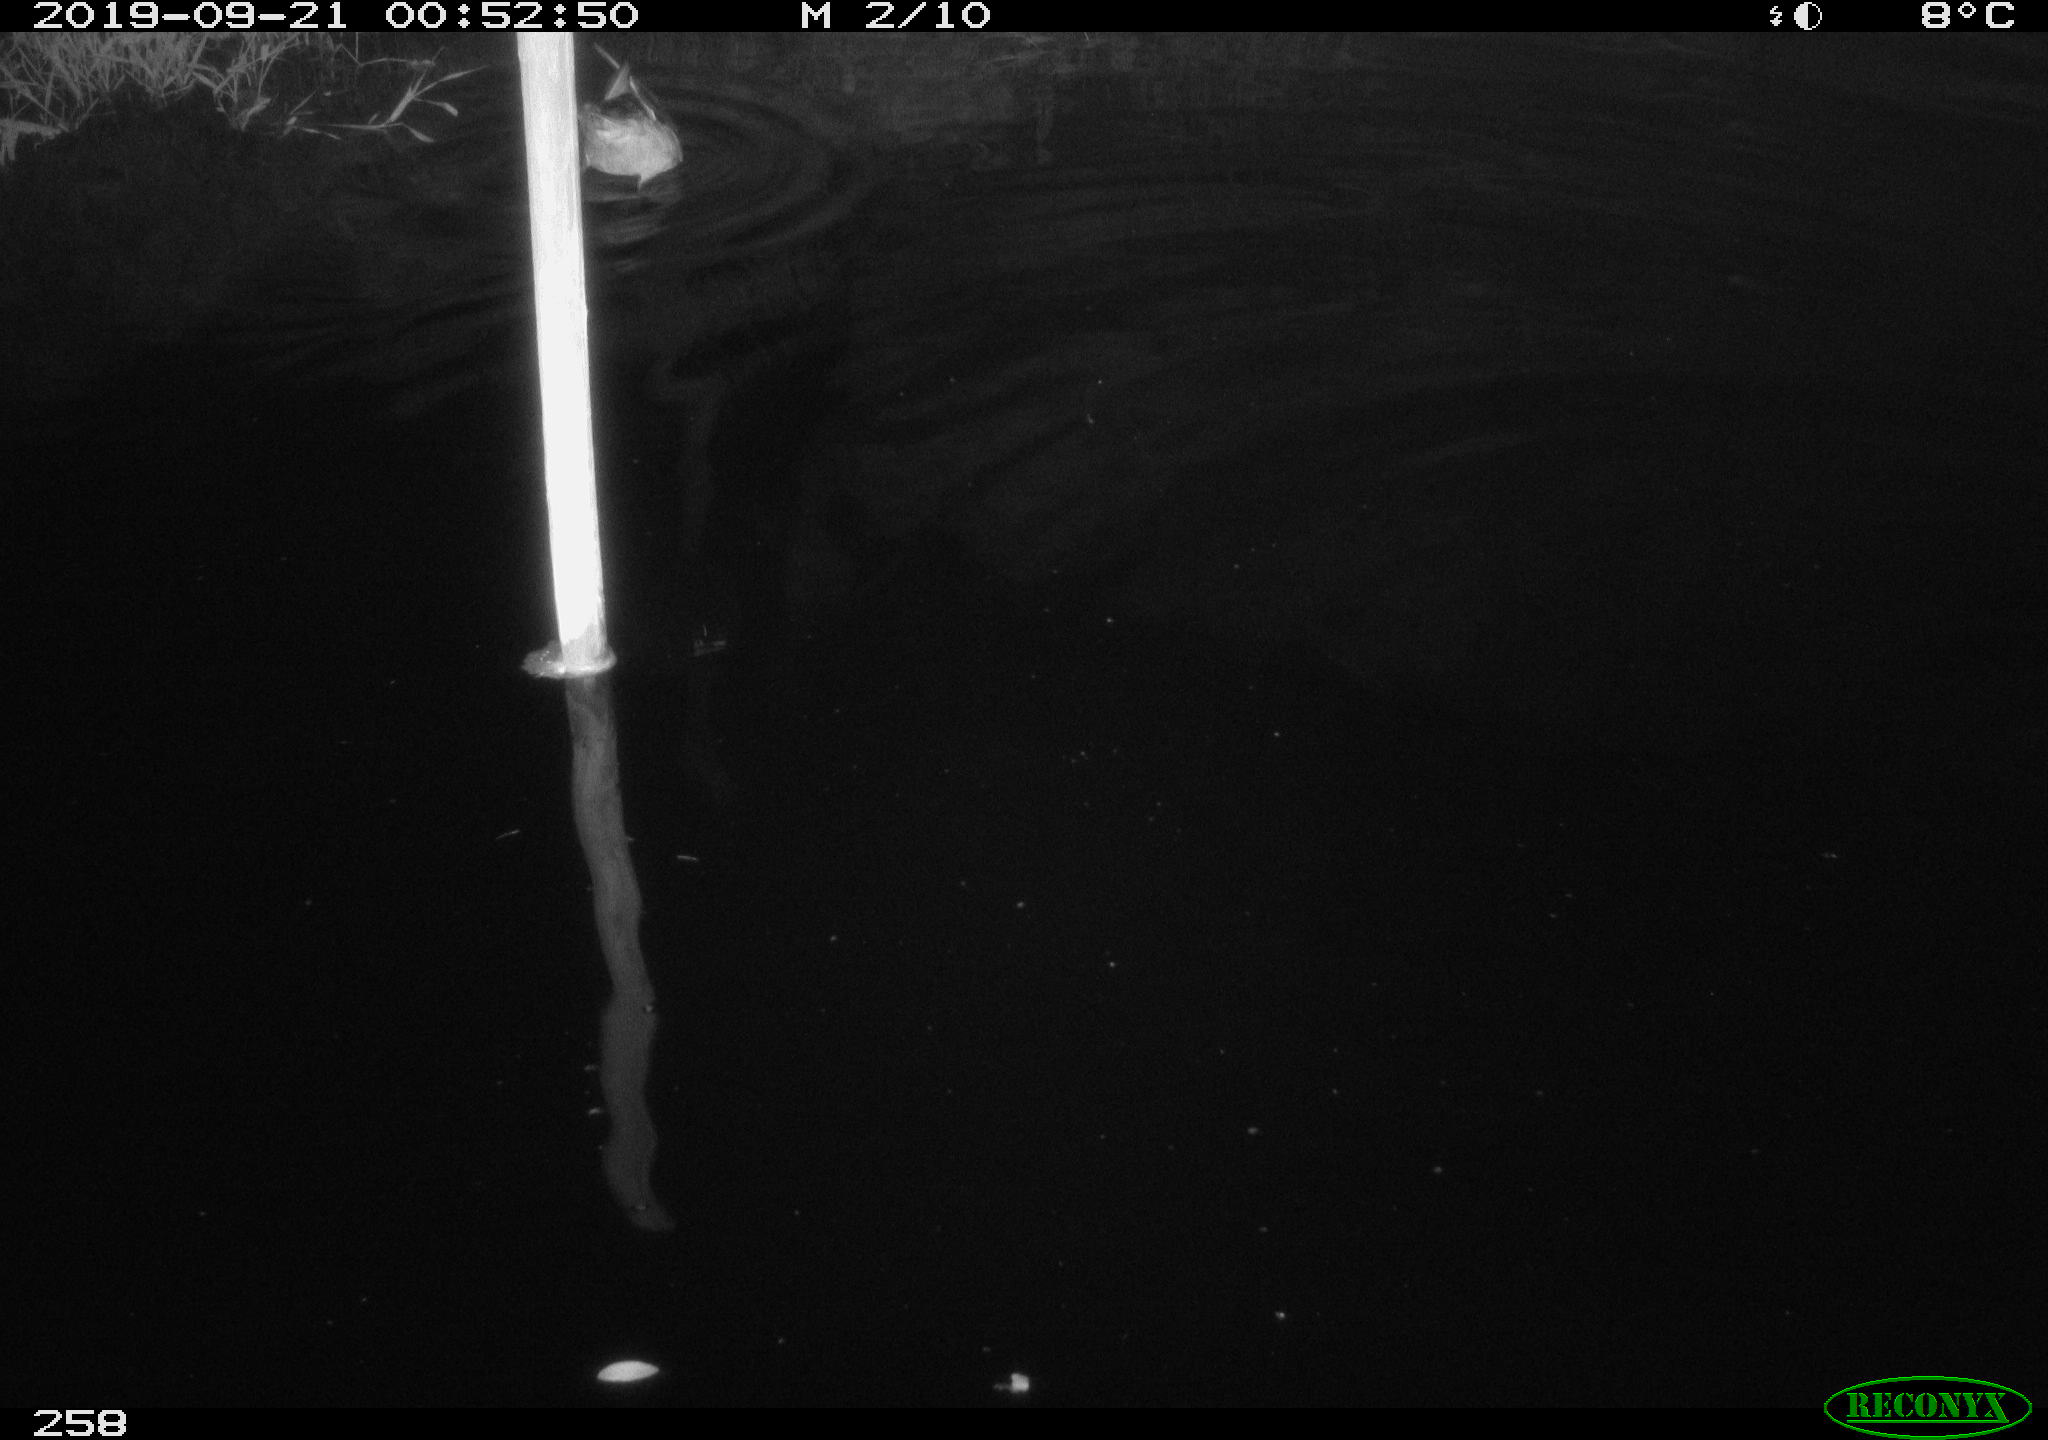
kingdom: Animalia
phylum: Chordata
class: Aves
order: Anseriformes
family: Anatidae
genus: Anas
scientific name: Anas platyrhynchos
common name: Mallard
